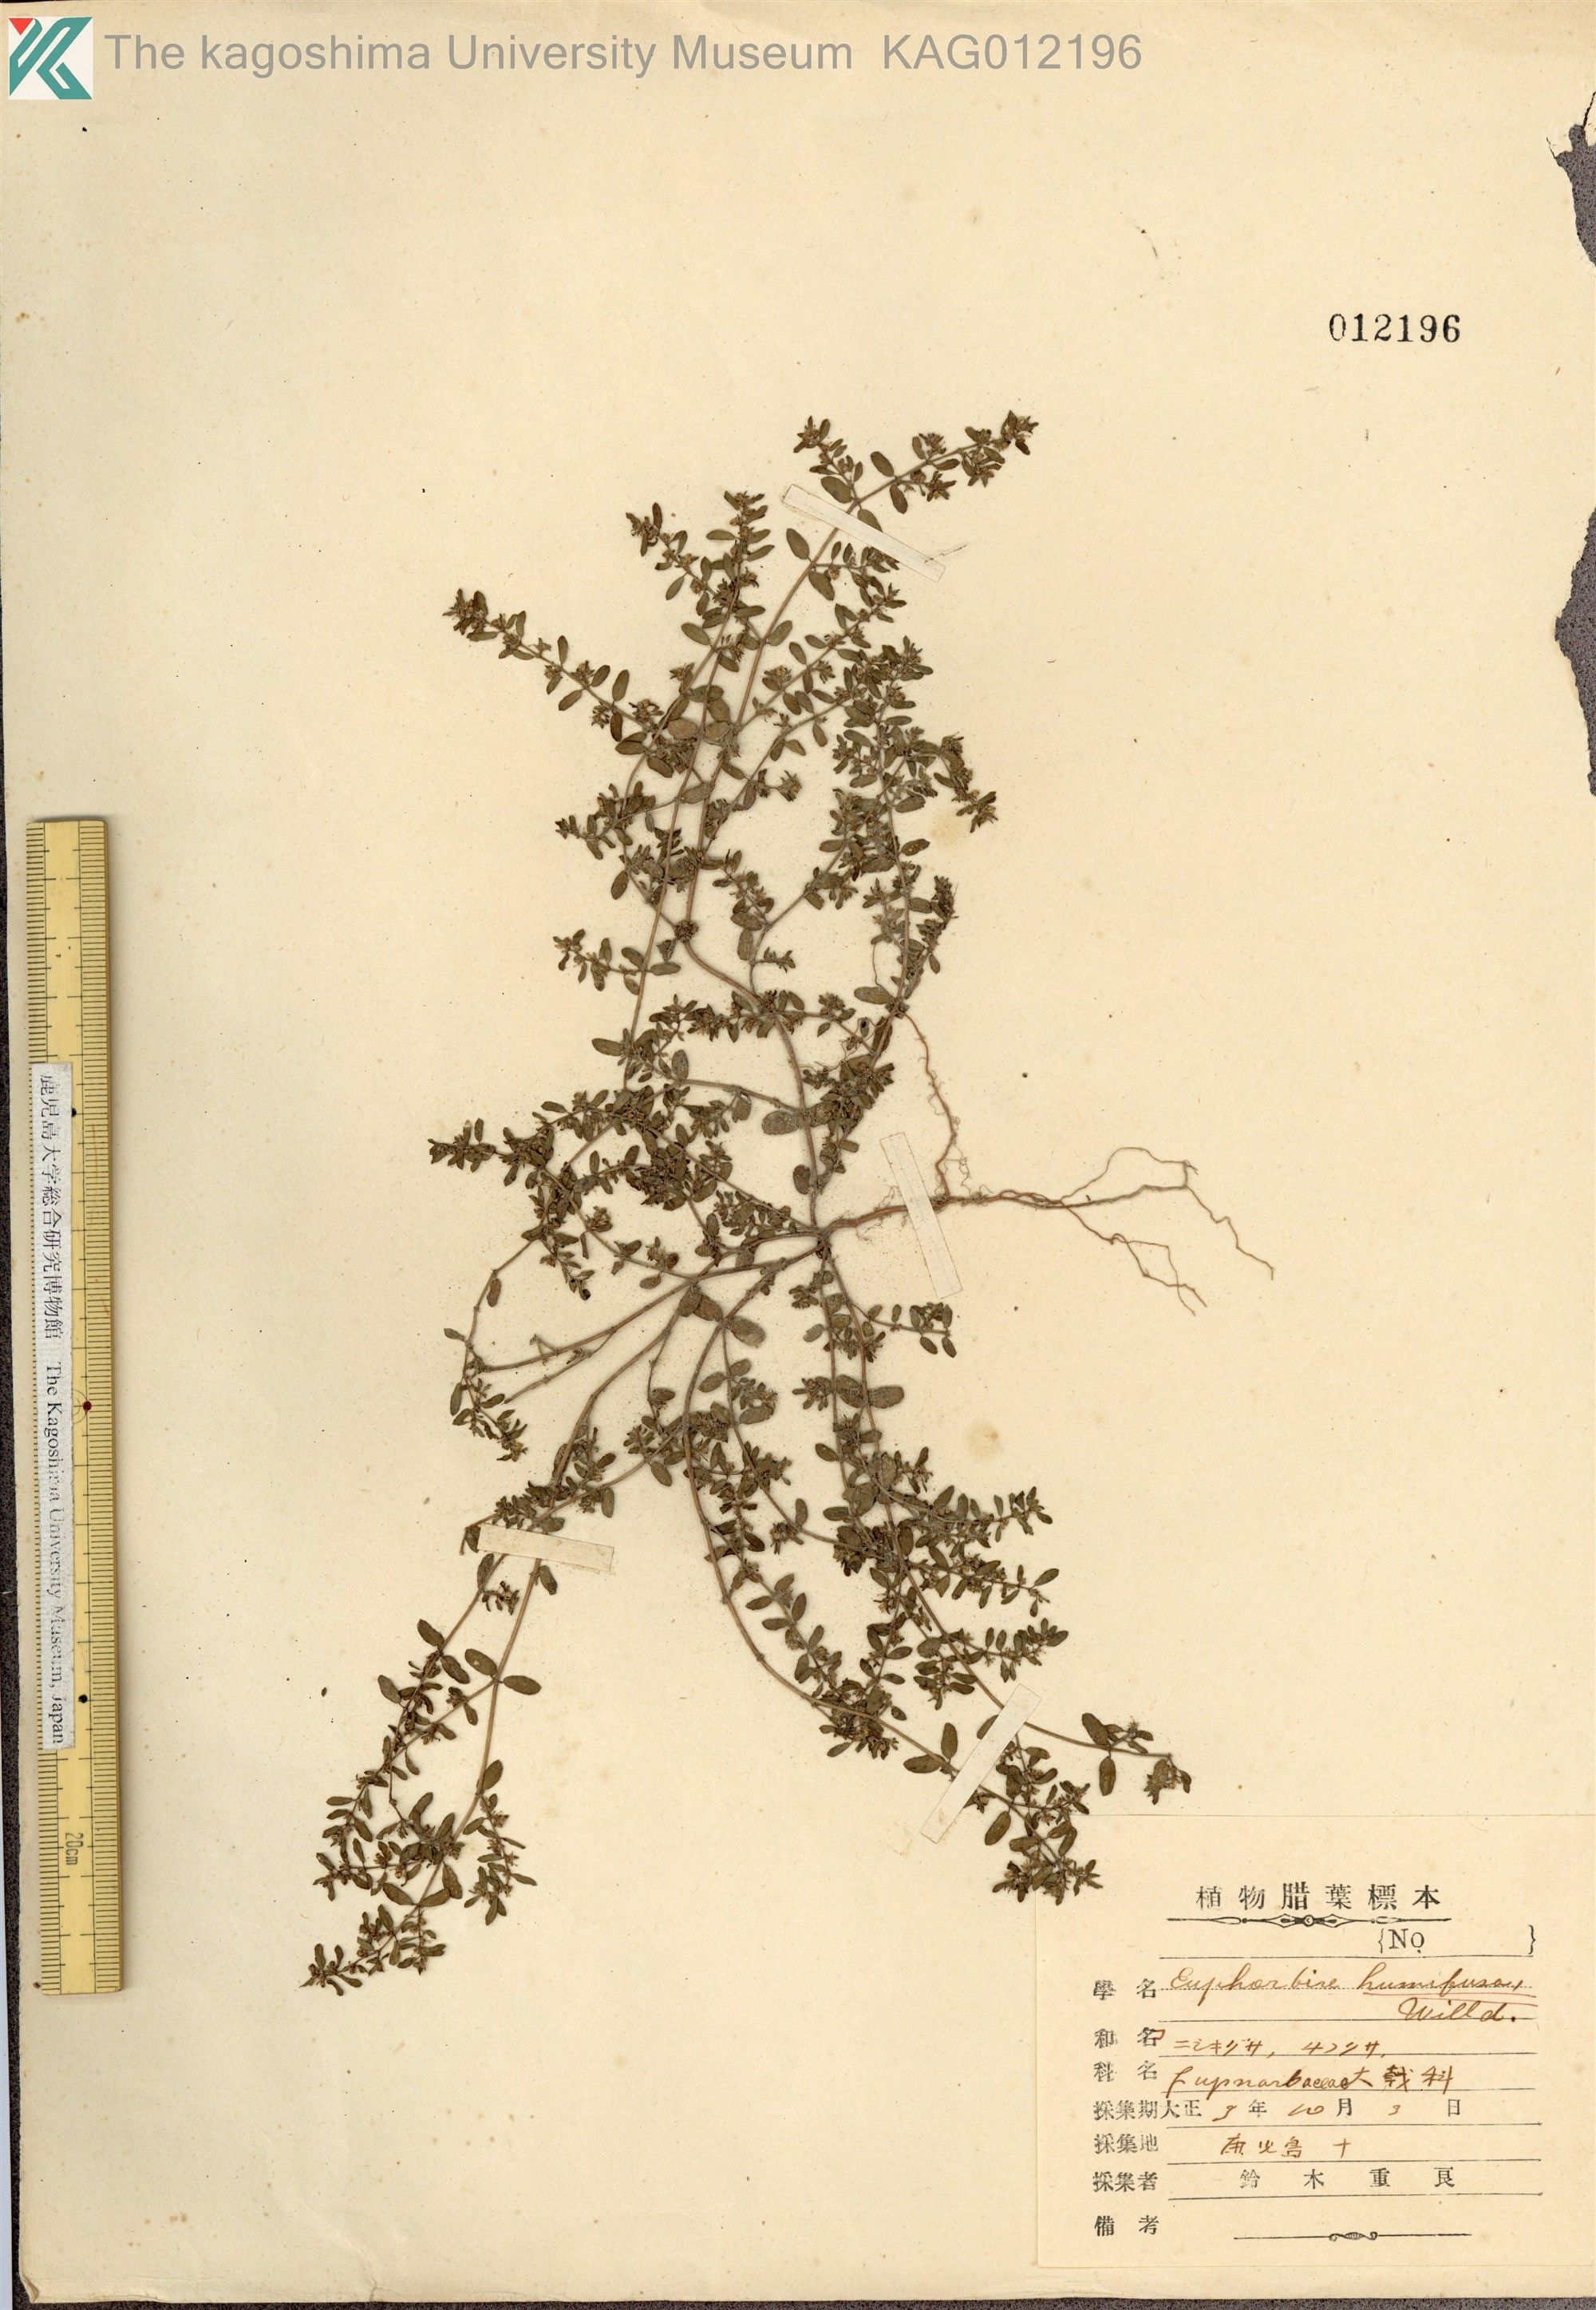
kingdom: Plantae
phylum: Tracheophyta
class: Magnoliopsida
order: Malpighiales
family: Euphorbiaceae
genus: Euphorbia
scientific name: Euphorbia maculata
